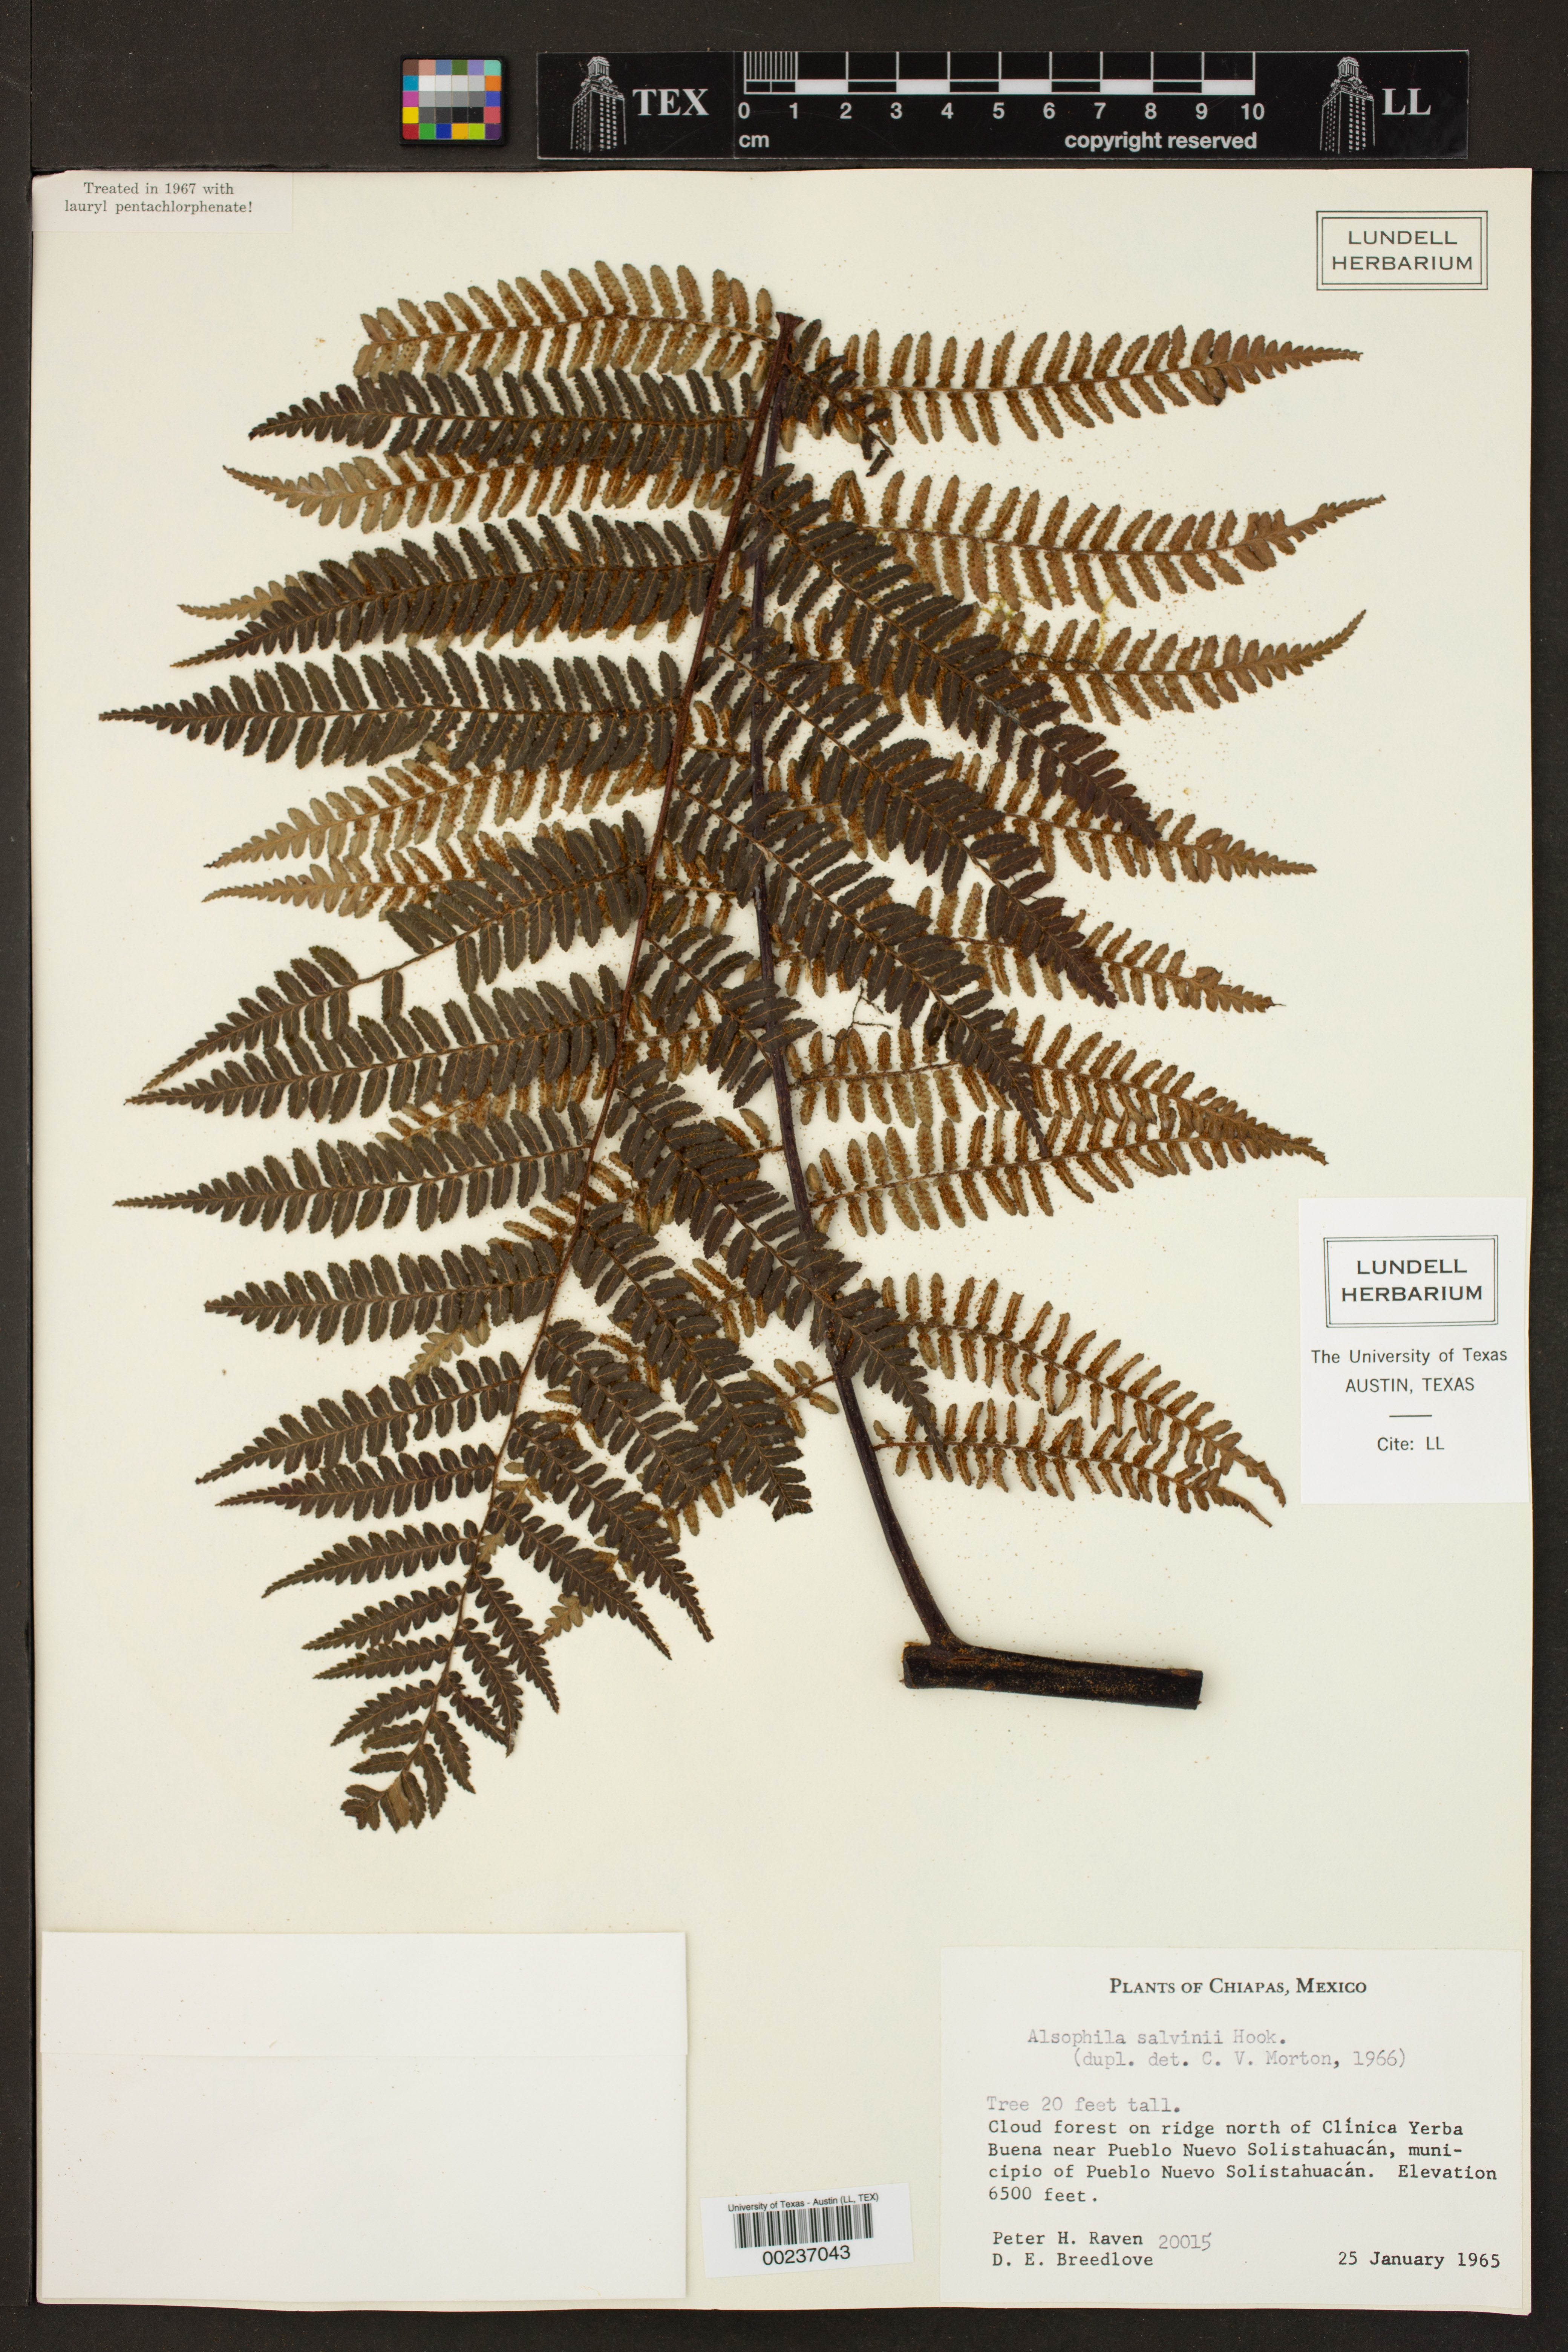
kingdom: Plantae
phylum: Tracheophyta
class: Polypodiopsida
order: Cyatheales
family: Cyatheaceae
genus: Gymnosphaera
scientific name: Gymnosphaera salvinii
